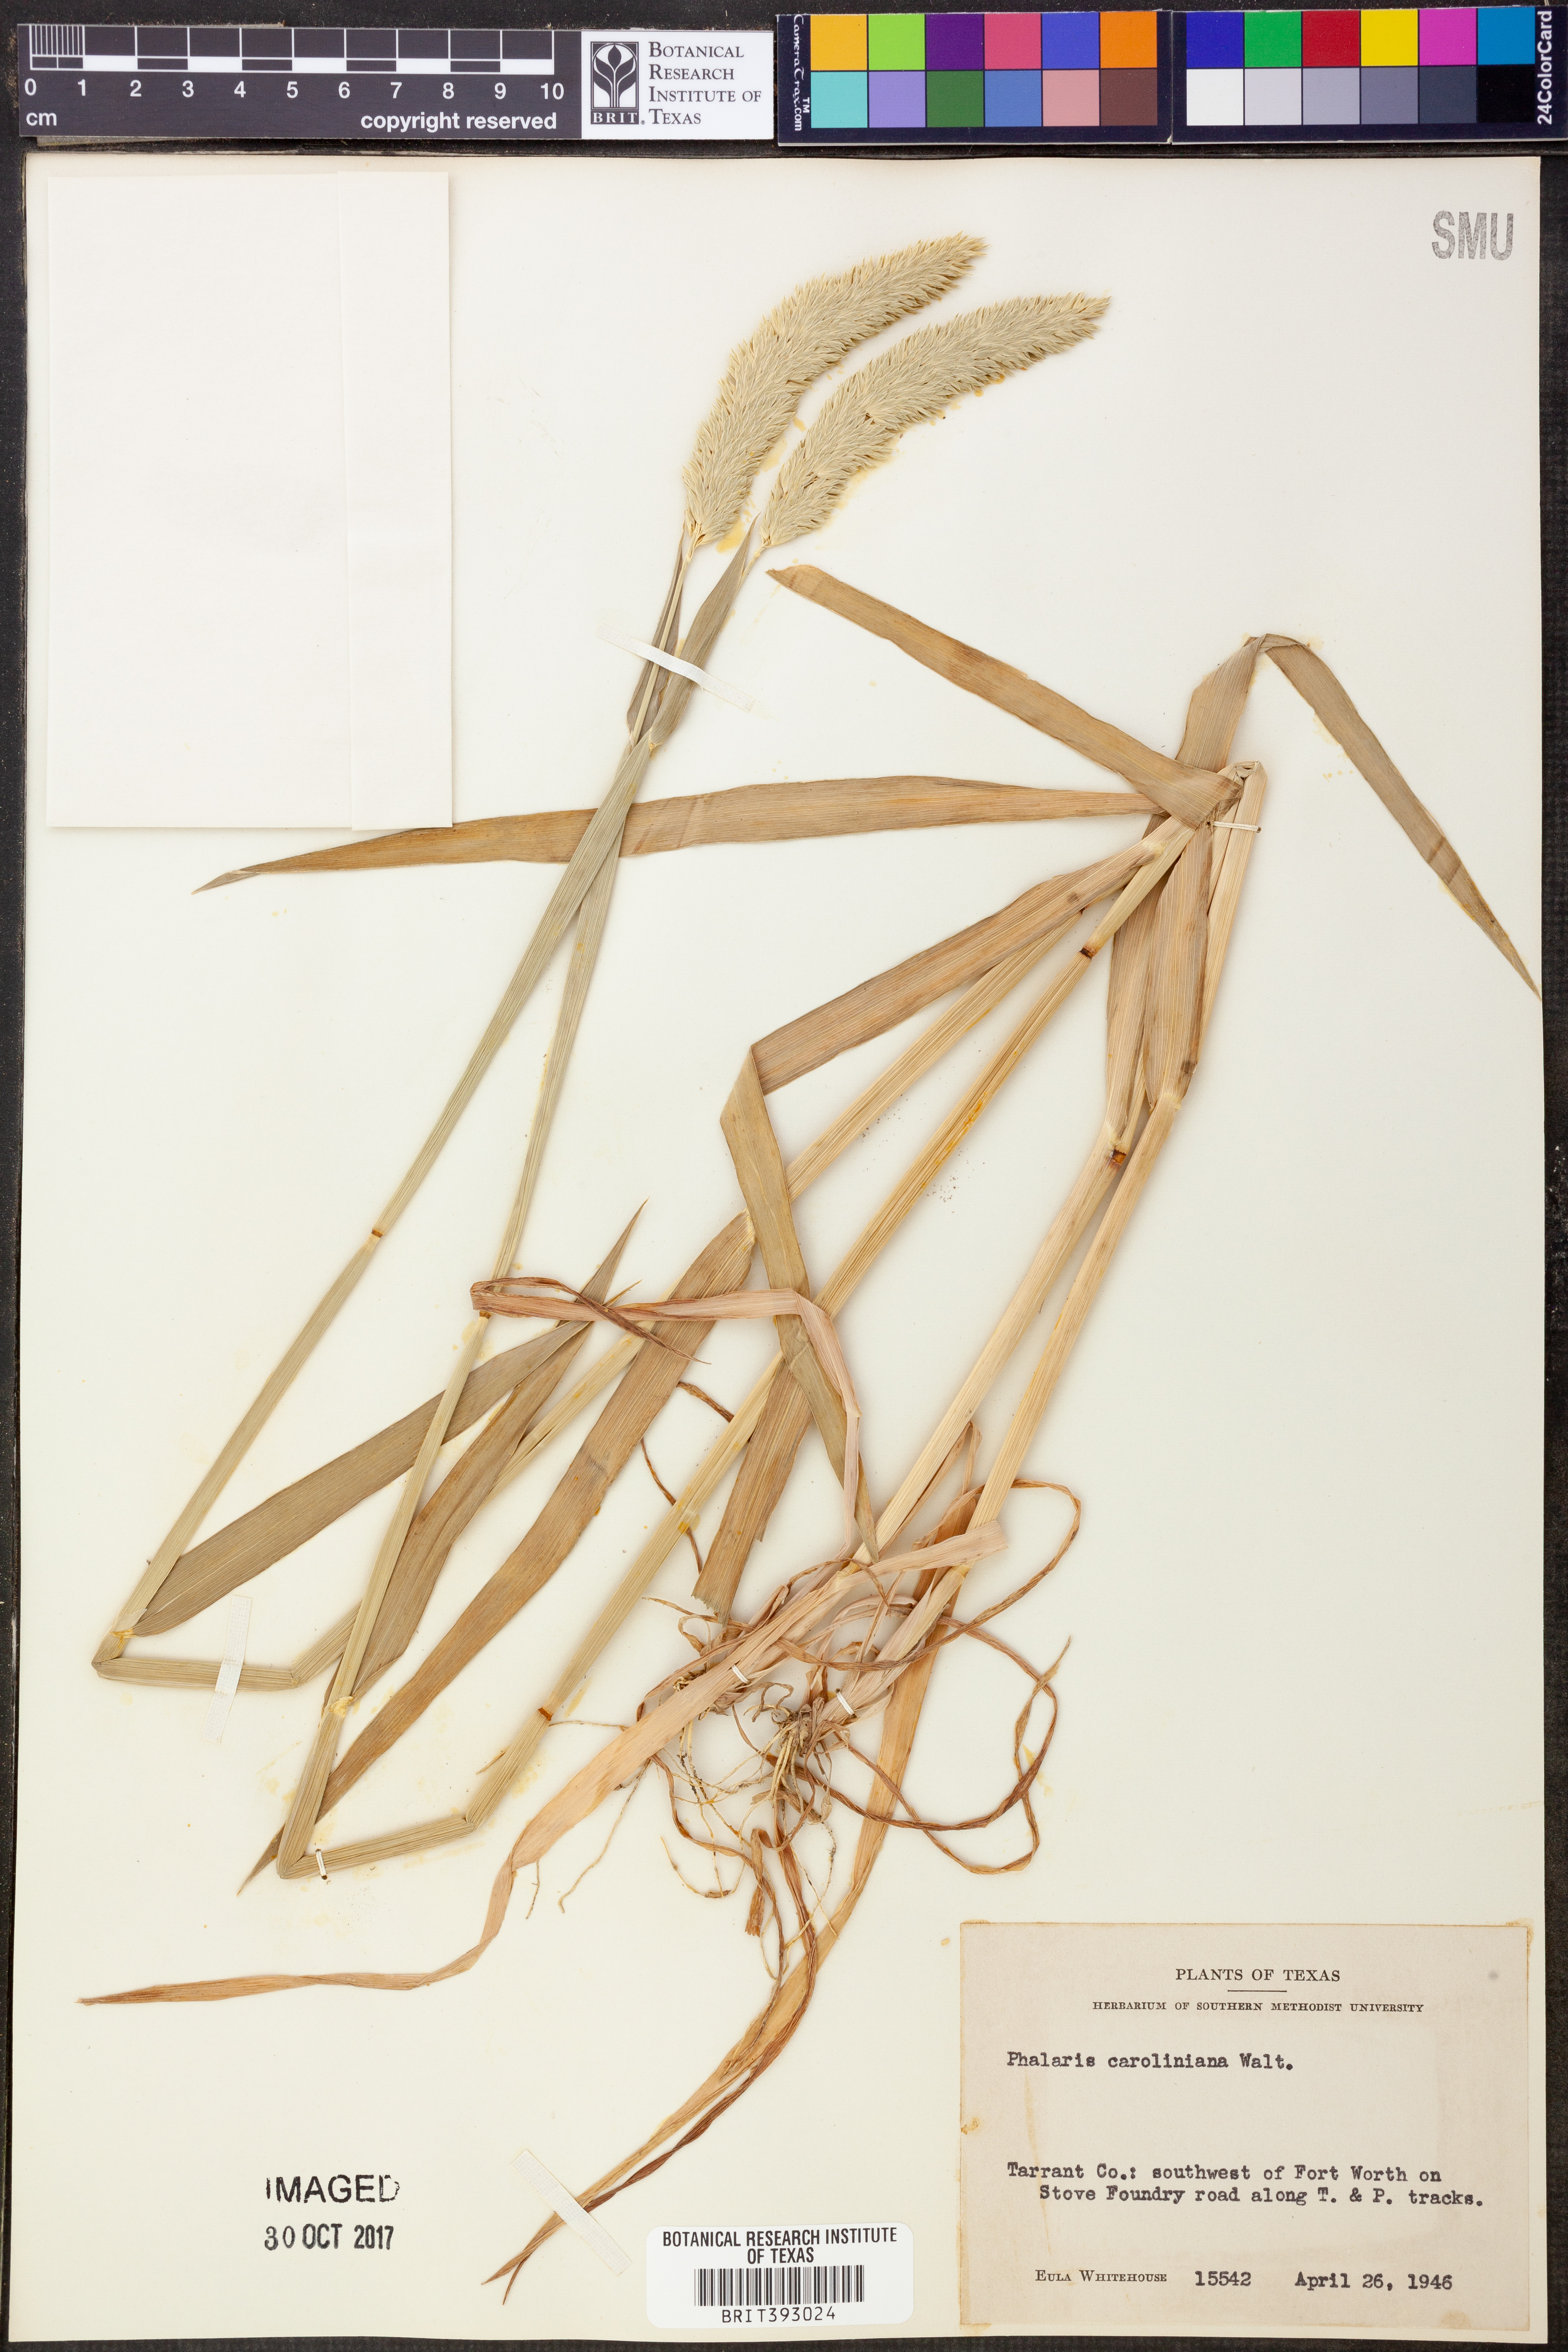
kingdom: Plantae
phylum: Tracheophyta
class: Liliopsida
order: Poales
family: Poaceae
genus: Phalaris
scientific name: Phalaris caroliniana
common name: May grass
